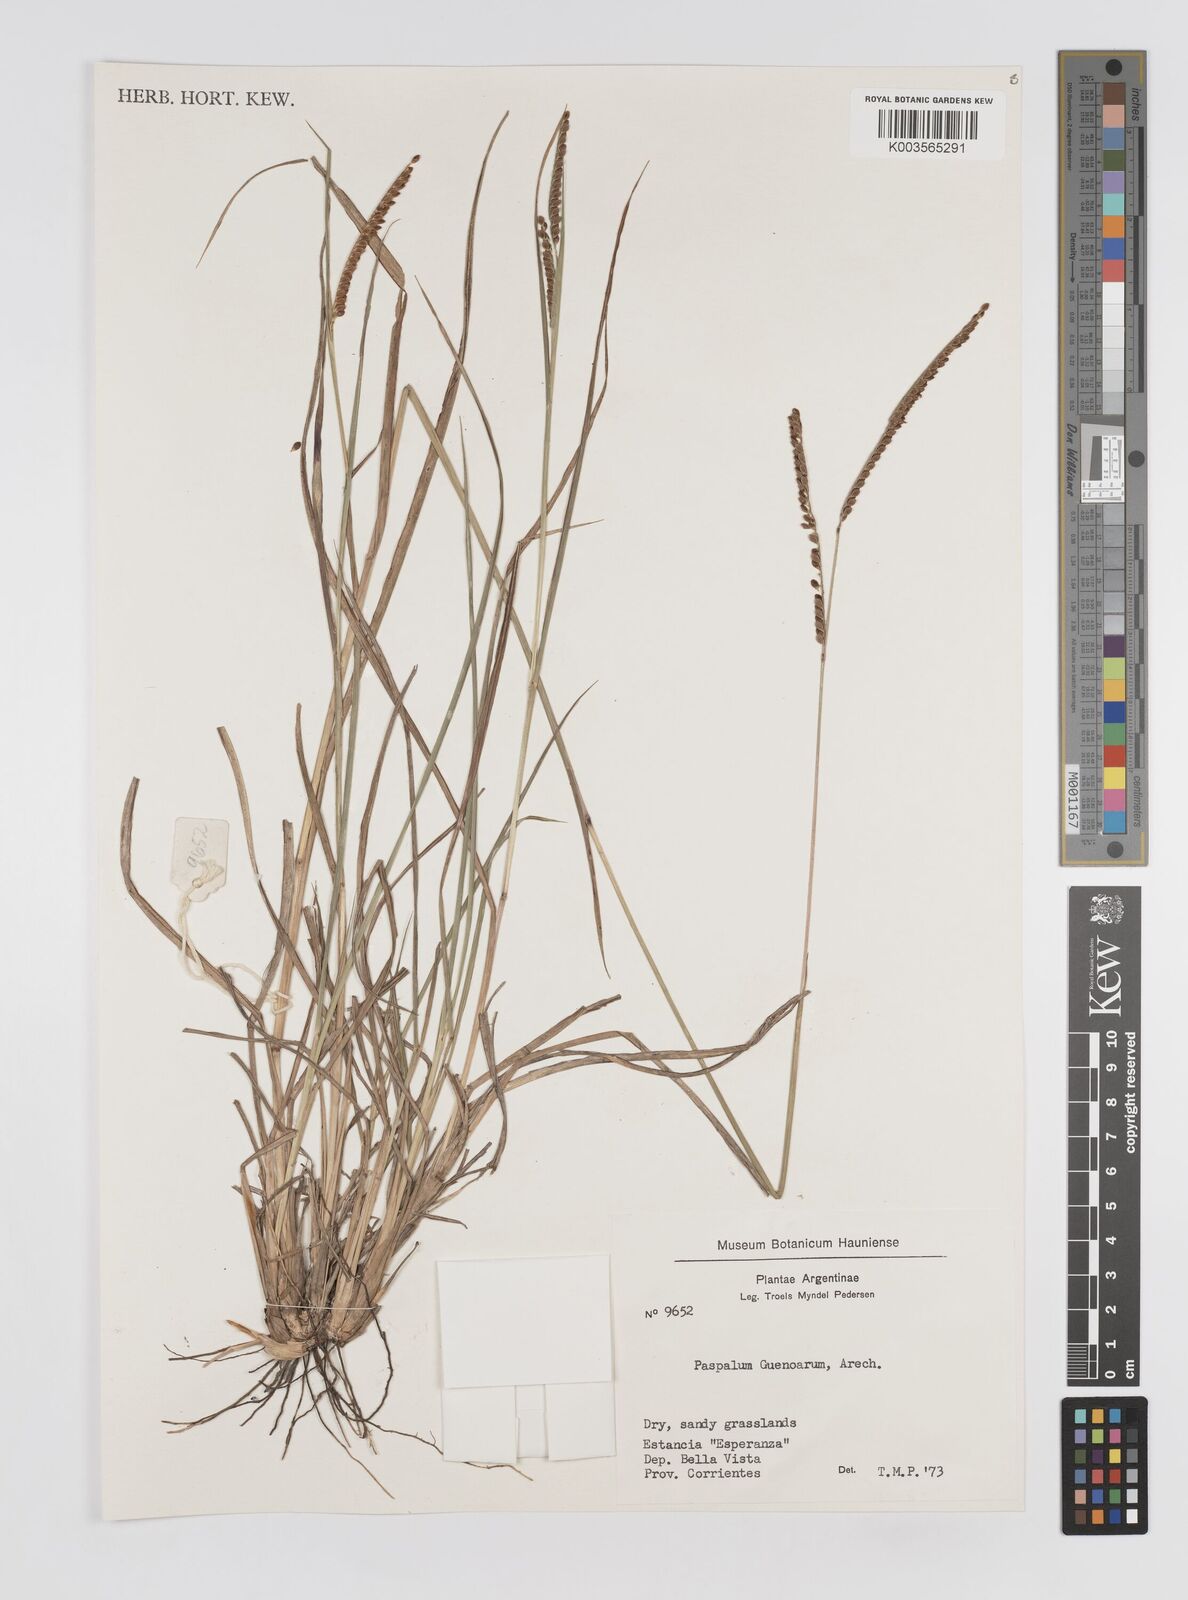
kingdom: Plantae
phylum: Tracheophyta
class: Liliopsida
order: Poales
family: Poaceae
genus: Paspalum
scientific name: Paspalum guenoarum
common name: Wintergreen paspalum
